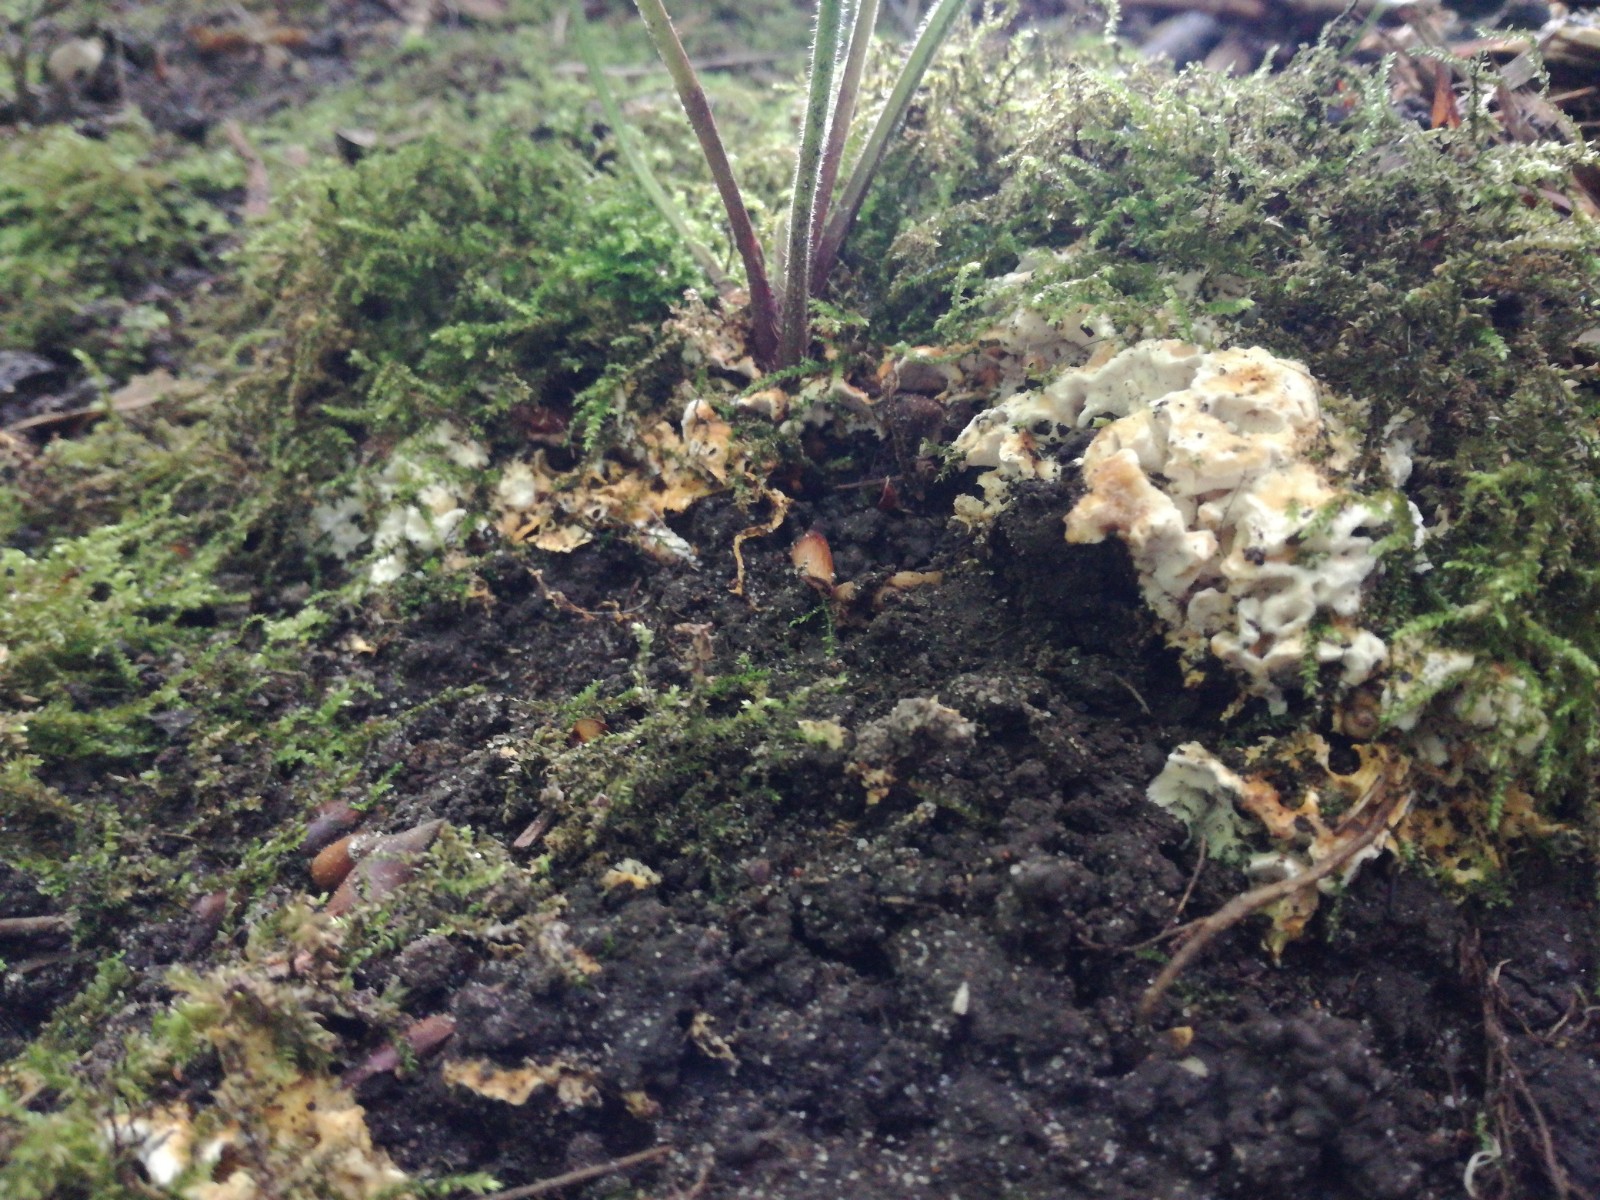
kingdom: Fungi
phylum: Basidiomycota
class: Agaricomycetes
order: Polyporales
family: Steccherinaceae
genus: Loweomyces
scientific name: Loweomyces wynneae
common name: krybende blødporesvamp
